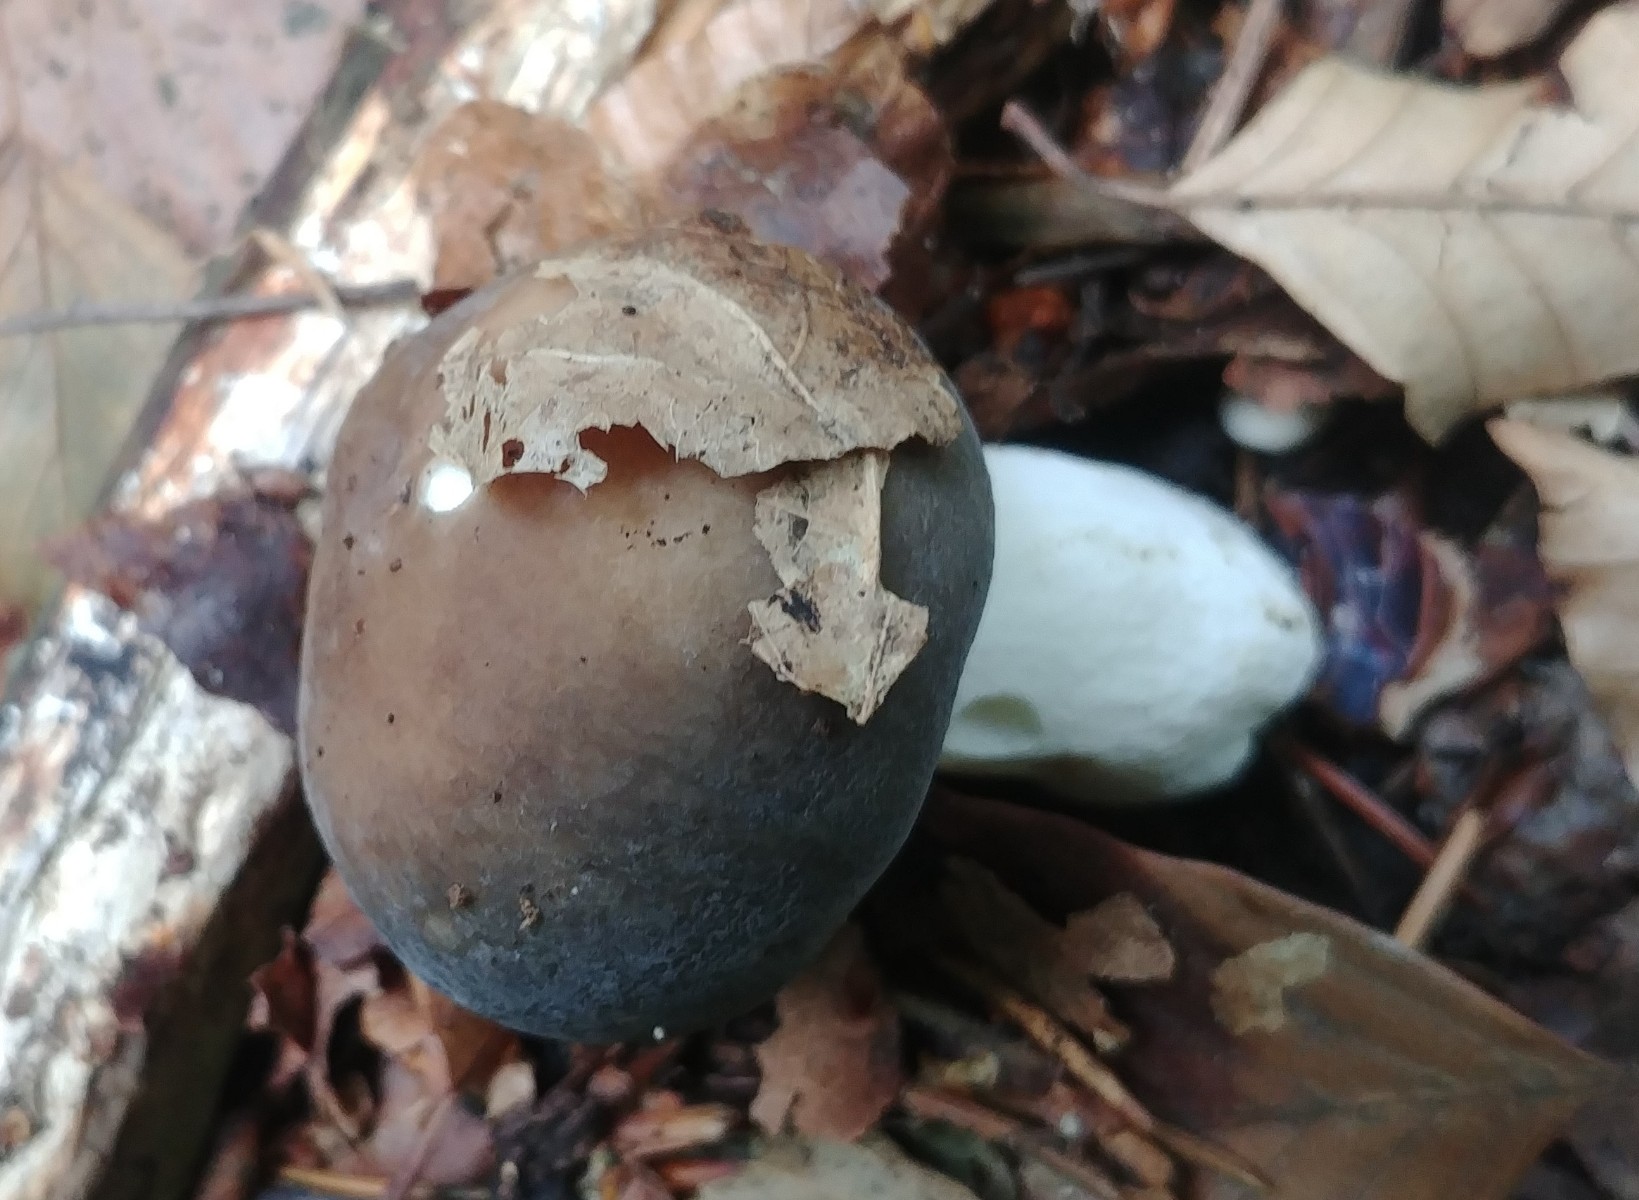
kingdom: Fungi
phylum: Basidiomycota
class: Agaricomycetes
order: Russulales
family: Russulaceae
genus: Russula
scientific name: Russula cyanoxantha
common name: broget skørhat
